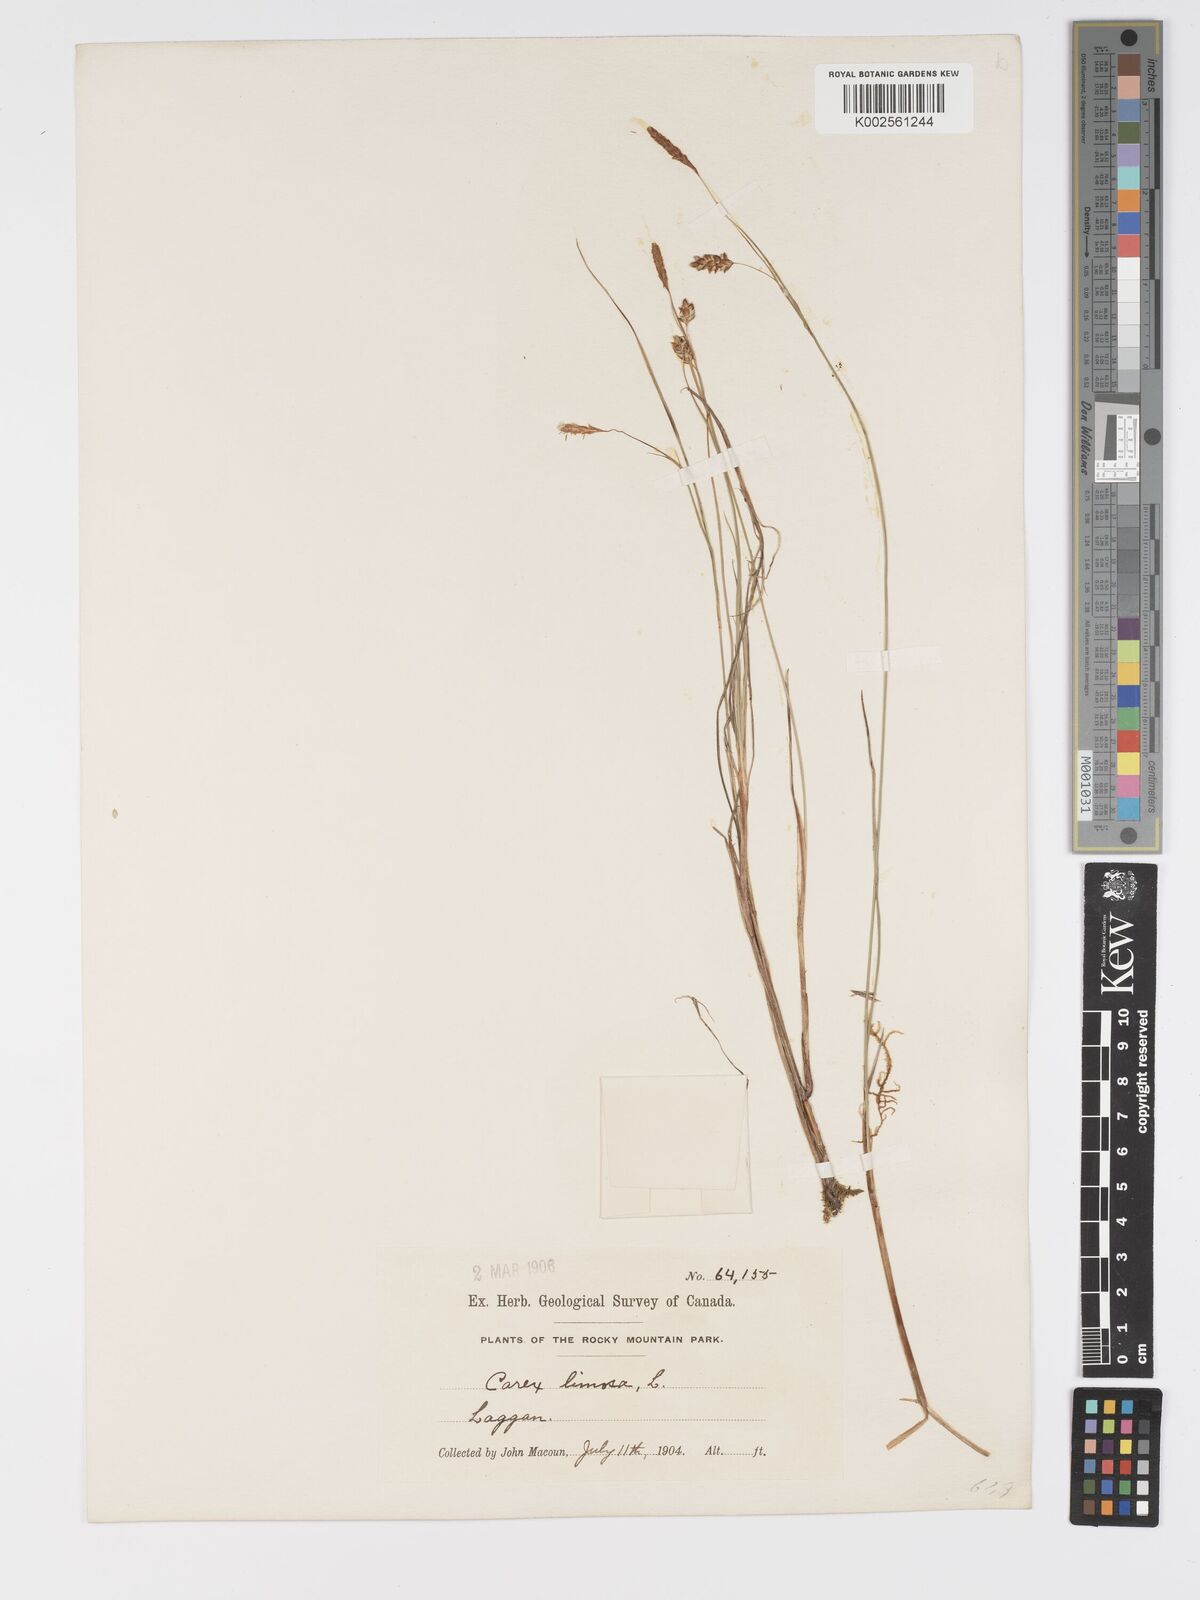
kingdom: Plantae
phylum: Tracheophyta
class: Liliopsida
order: Poales
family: Cyperaceae
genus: Carex
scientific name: Carex limosa
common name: Bog sedge
